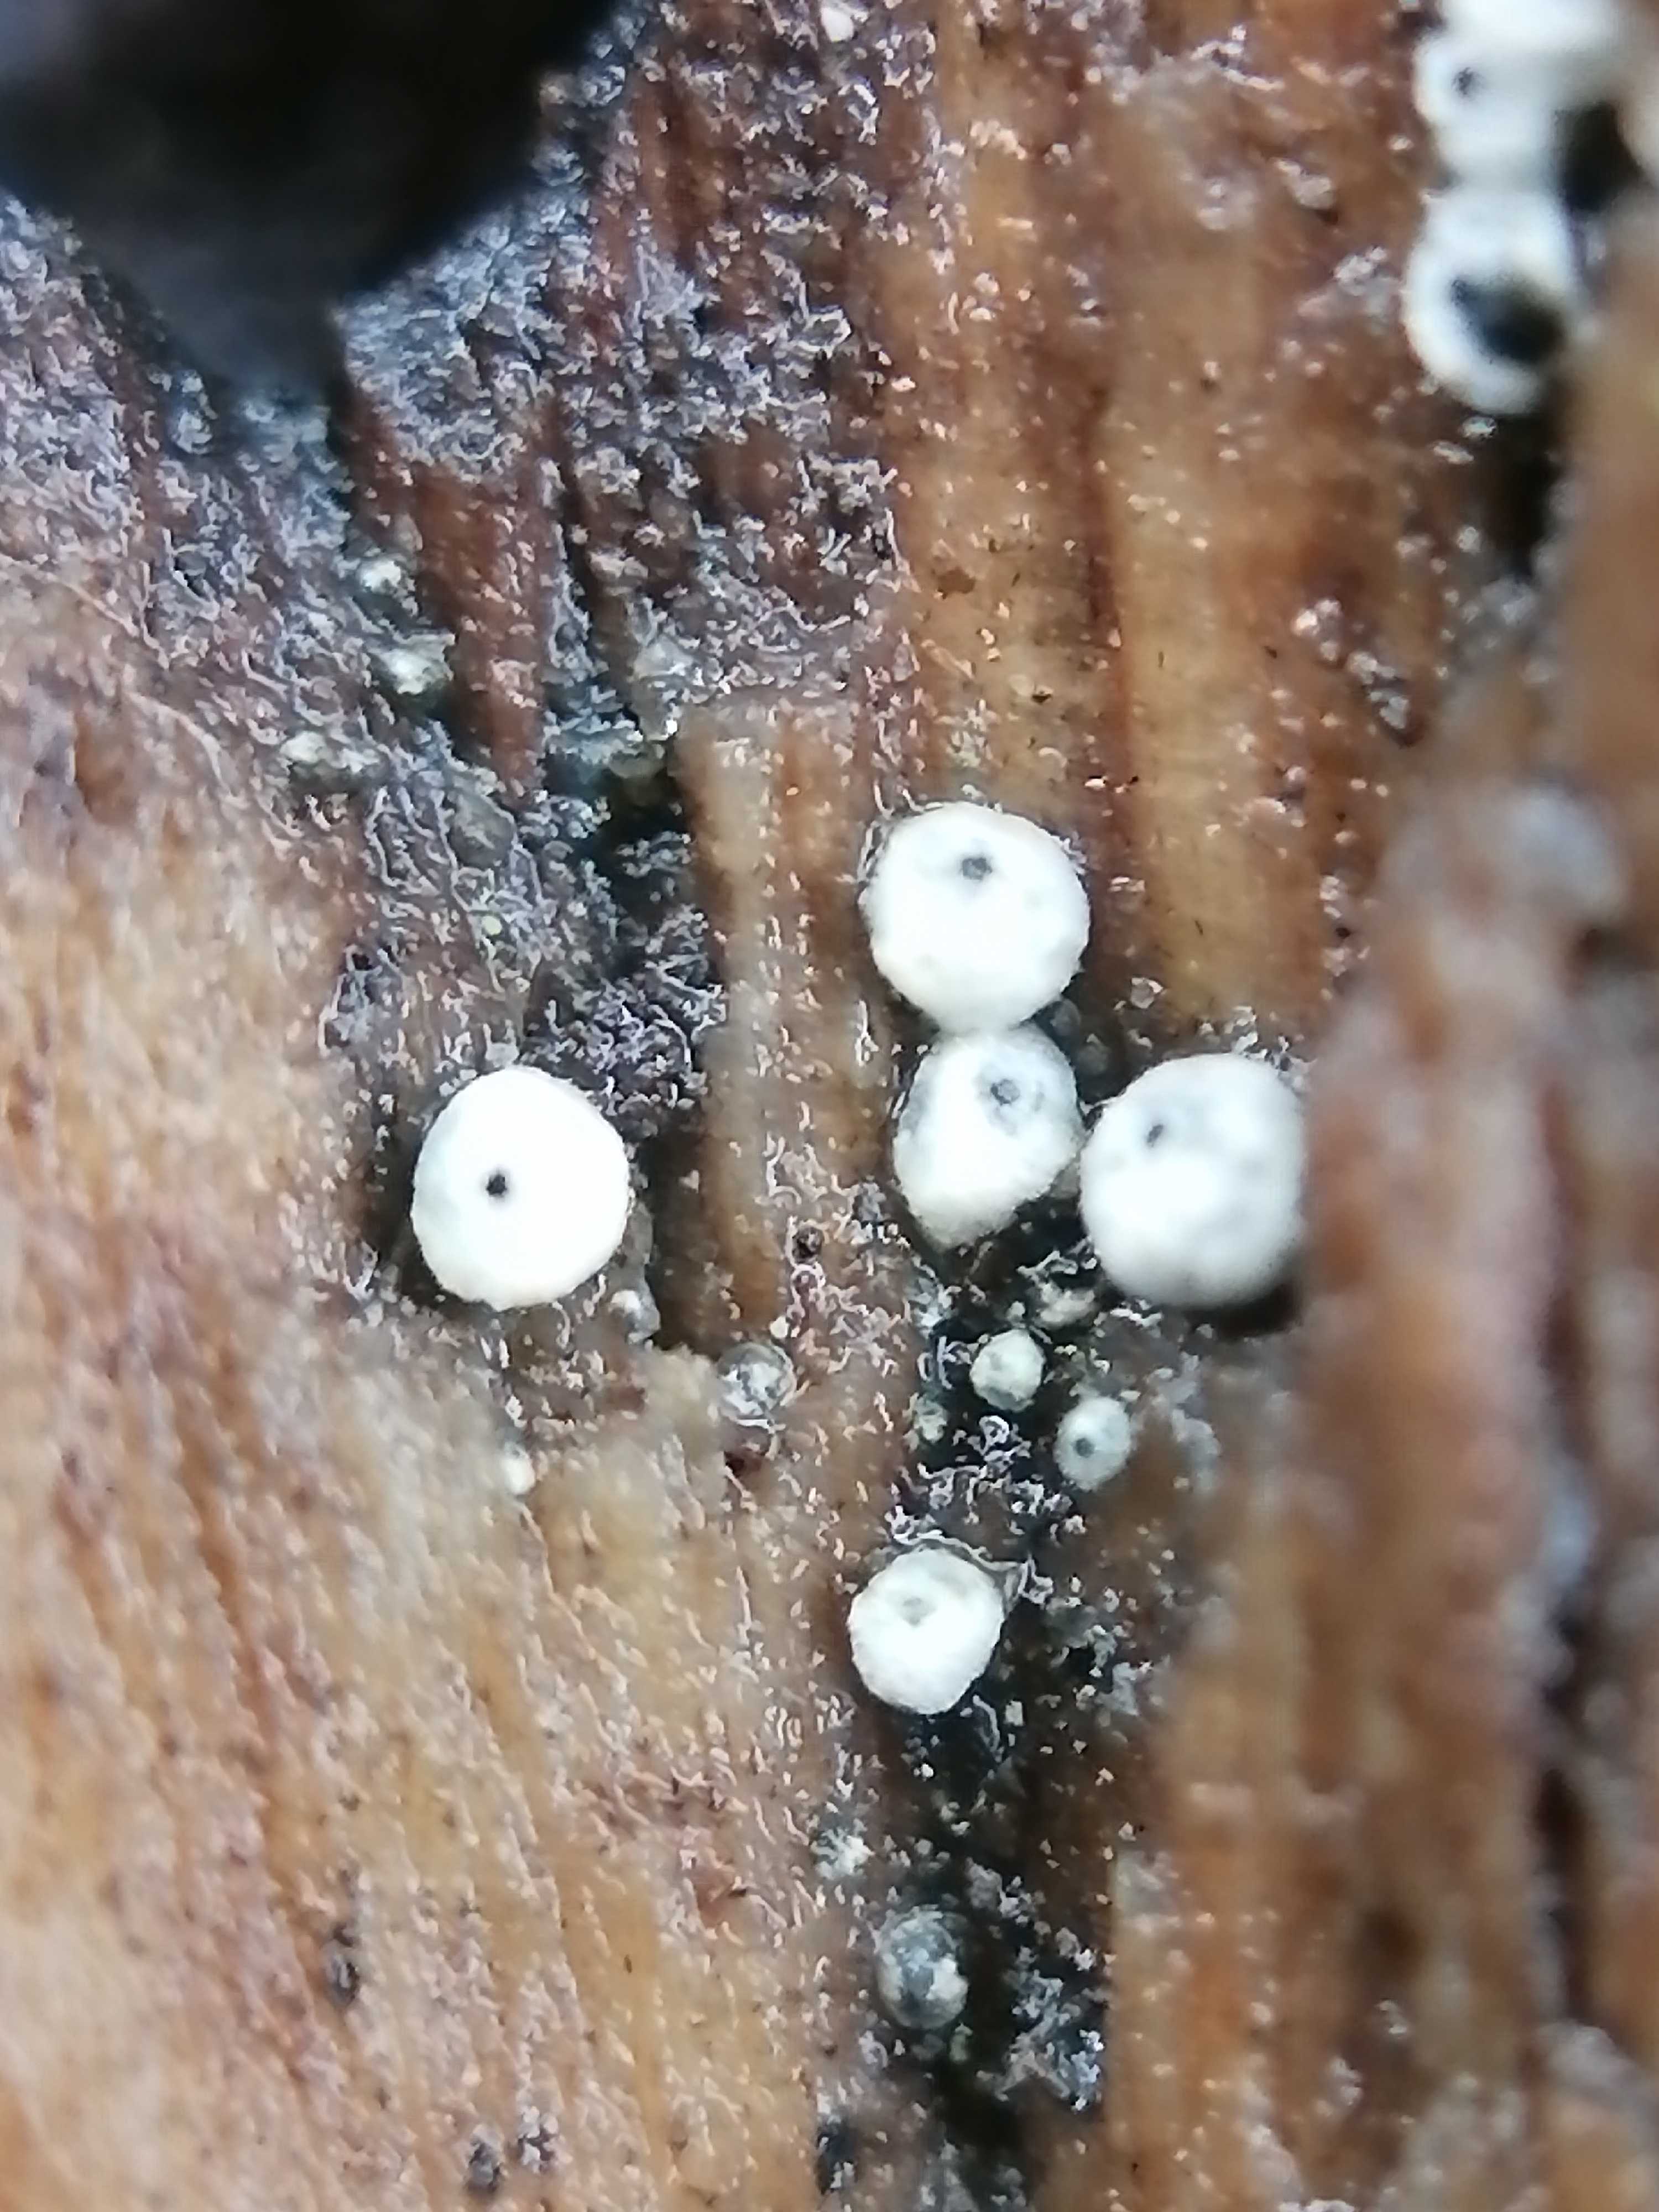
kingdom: Fungi
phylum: Ascomycota
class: Sordariomycetes
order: Sordariales
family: Lasiosphaeriaceae
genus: Lasiosphaeria
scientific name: Lasiosphaeria ovina
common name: fåre-kernesvamp
